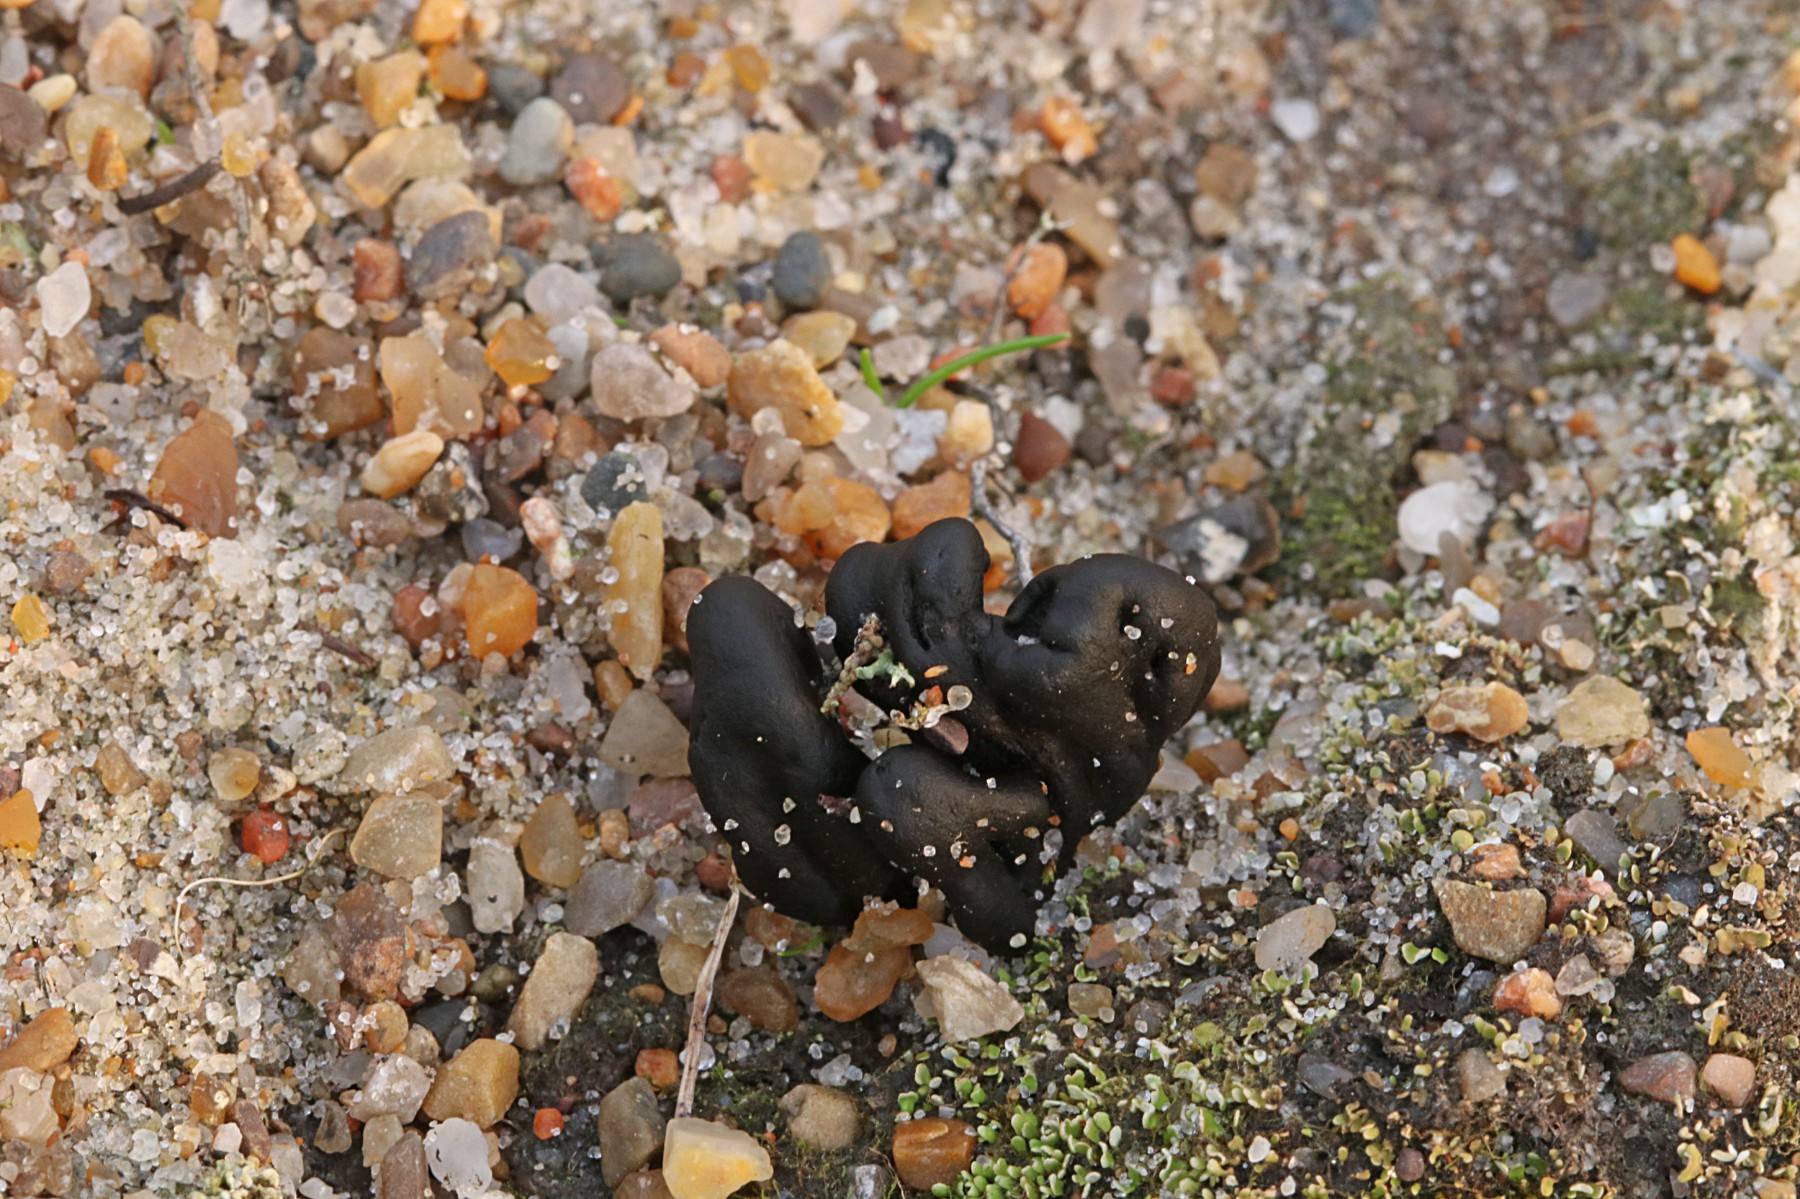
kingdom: Fungi
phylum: Ascomycota
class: Geoglossomycetes
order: Geoglossales
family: Geoglossaceae
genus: Sabuloglossum
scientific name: Sabuloglossum arenarium
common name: klit-jordtunge
